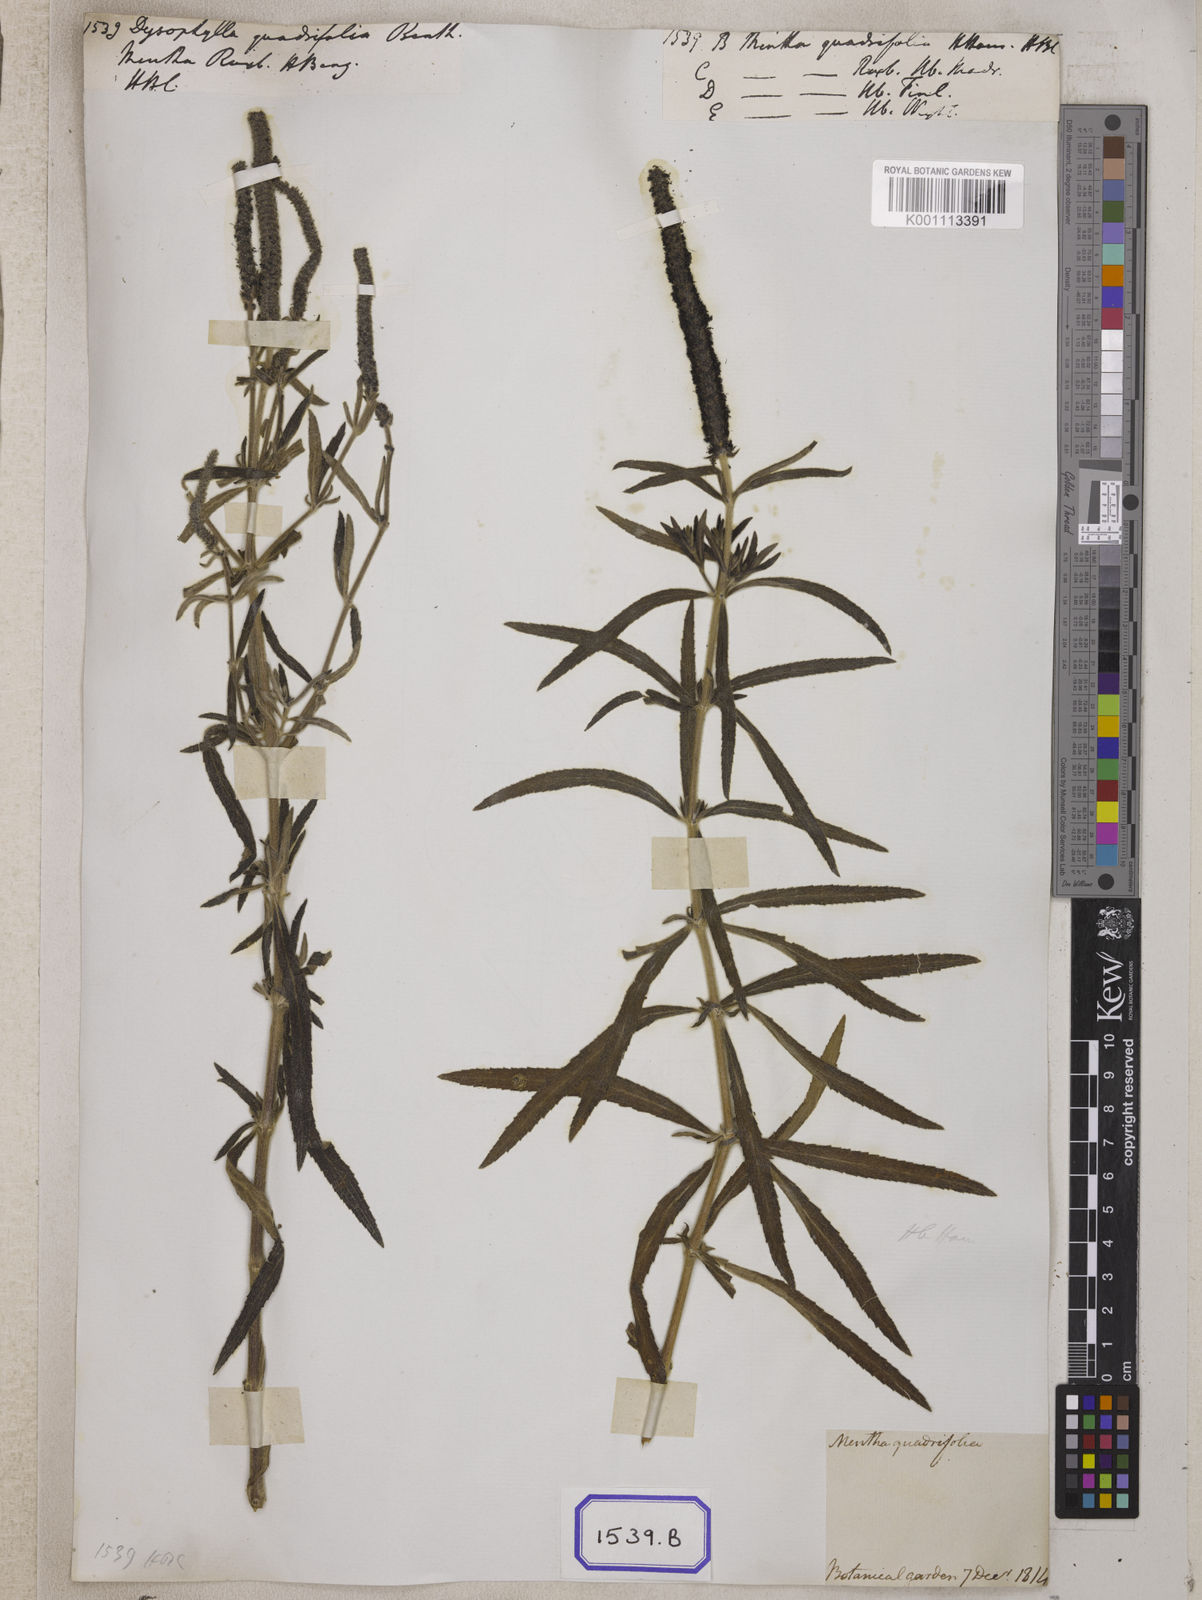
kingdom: Plantae
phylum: Tracheophyta
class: Magnoliopsida
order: Lamiales
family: Lamiaceae
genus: Pogostemon
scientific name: Pogostemon quadrifolius
